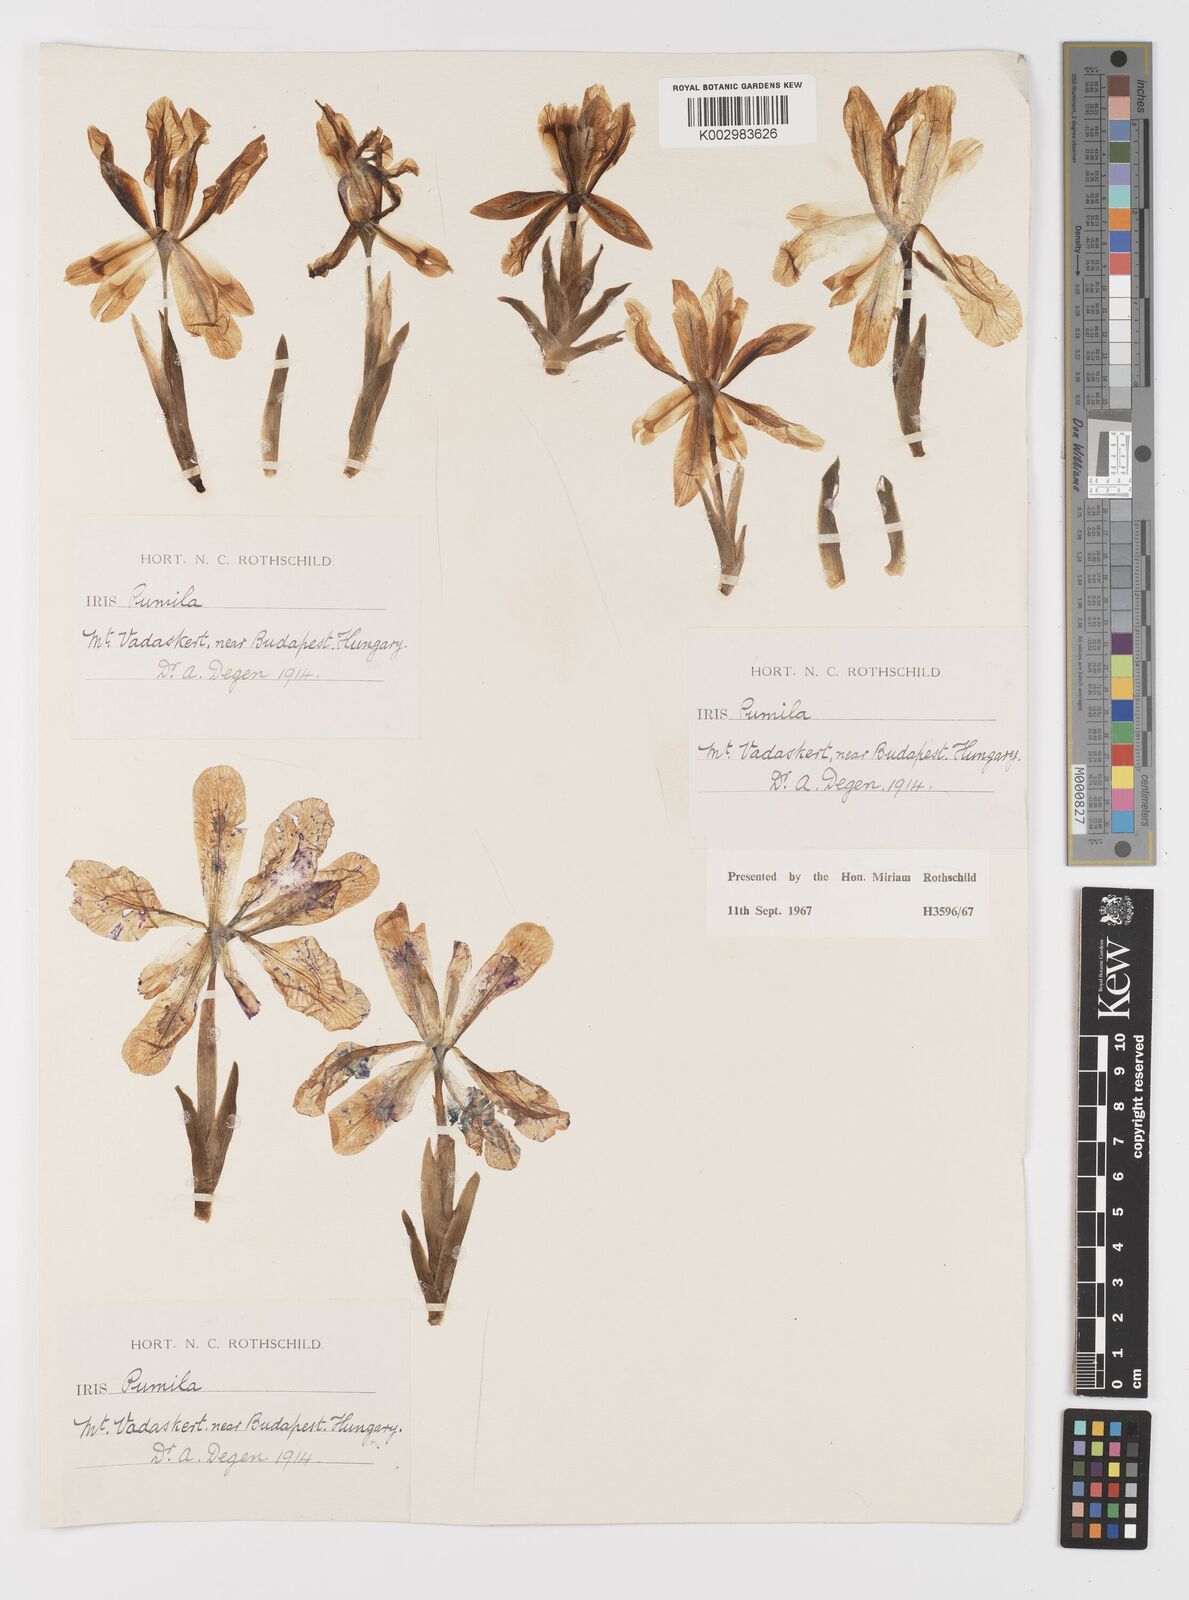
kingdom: Plantae
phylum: Tracheophyta
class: Liliopsida
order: Asparagales
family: Iridaceae
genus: Iris
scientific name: Iris pumila
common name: Dwarf iris
